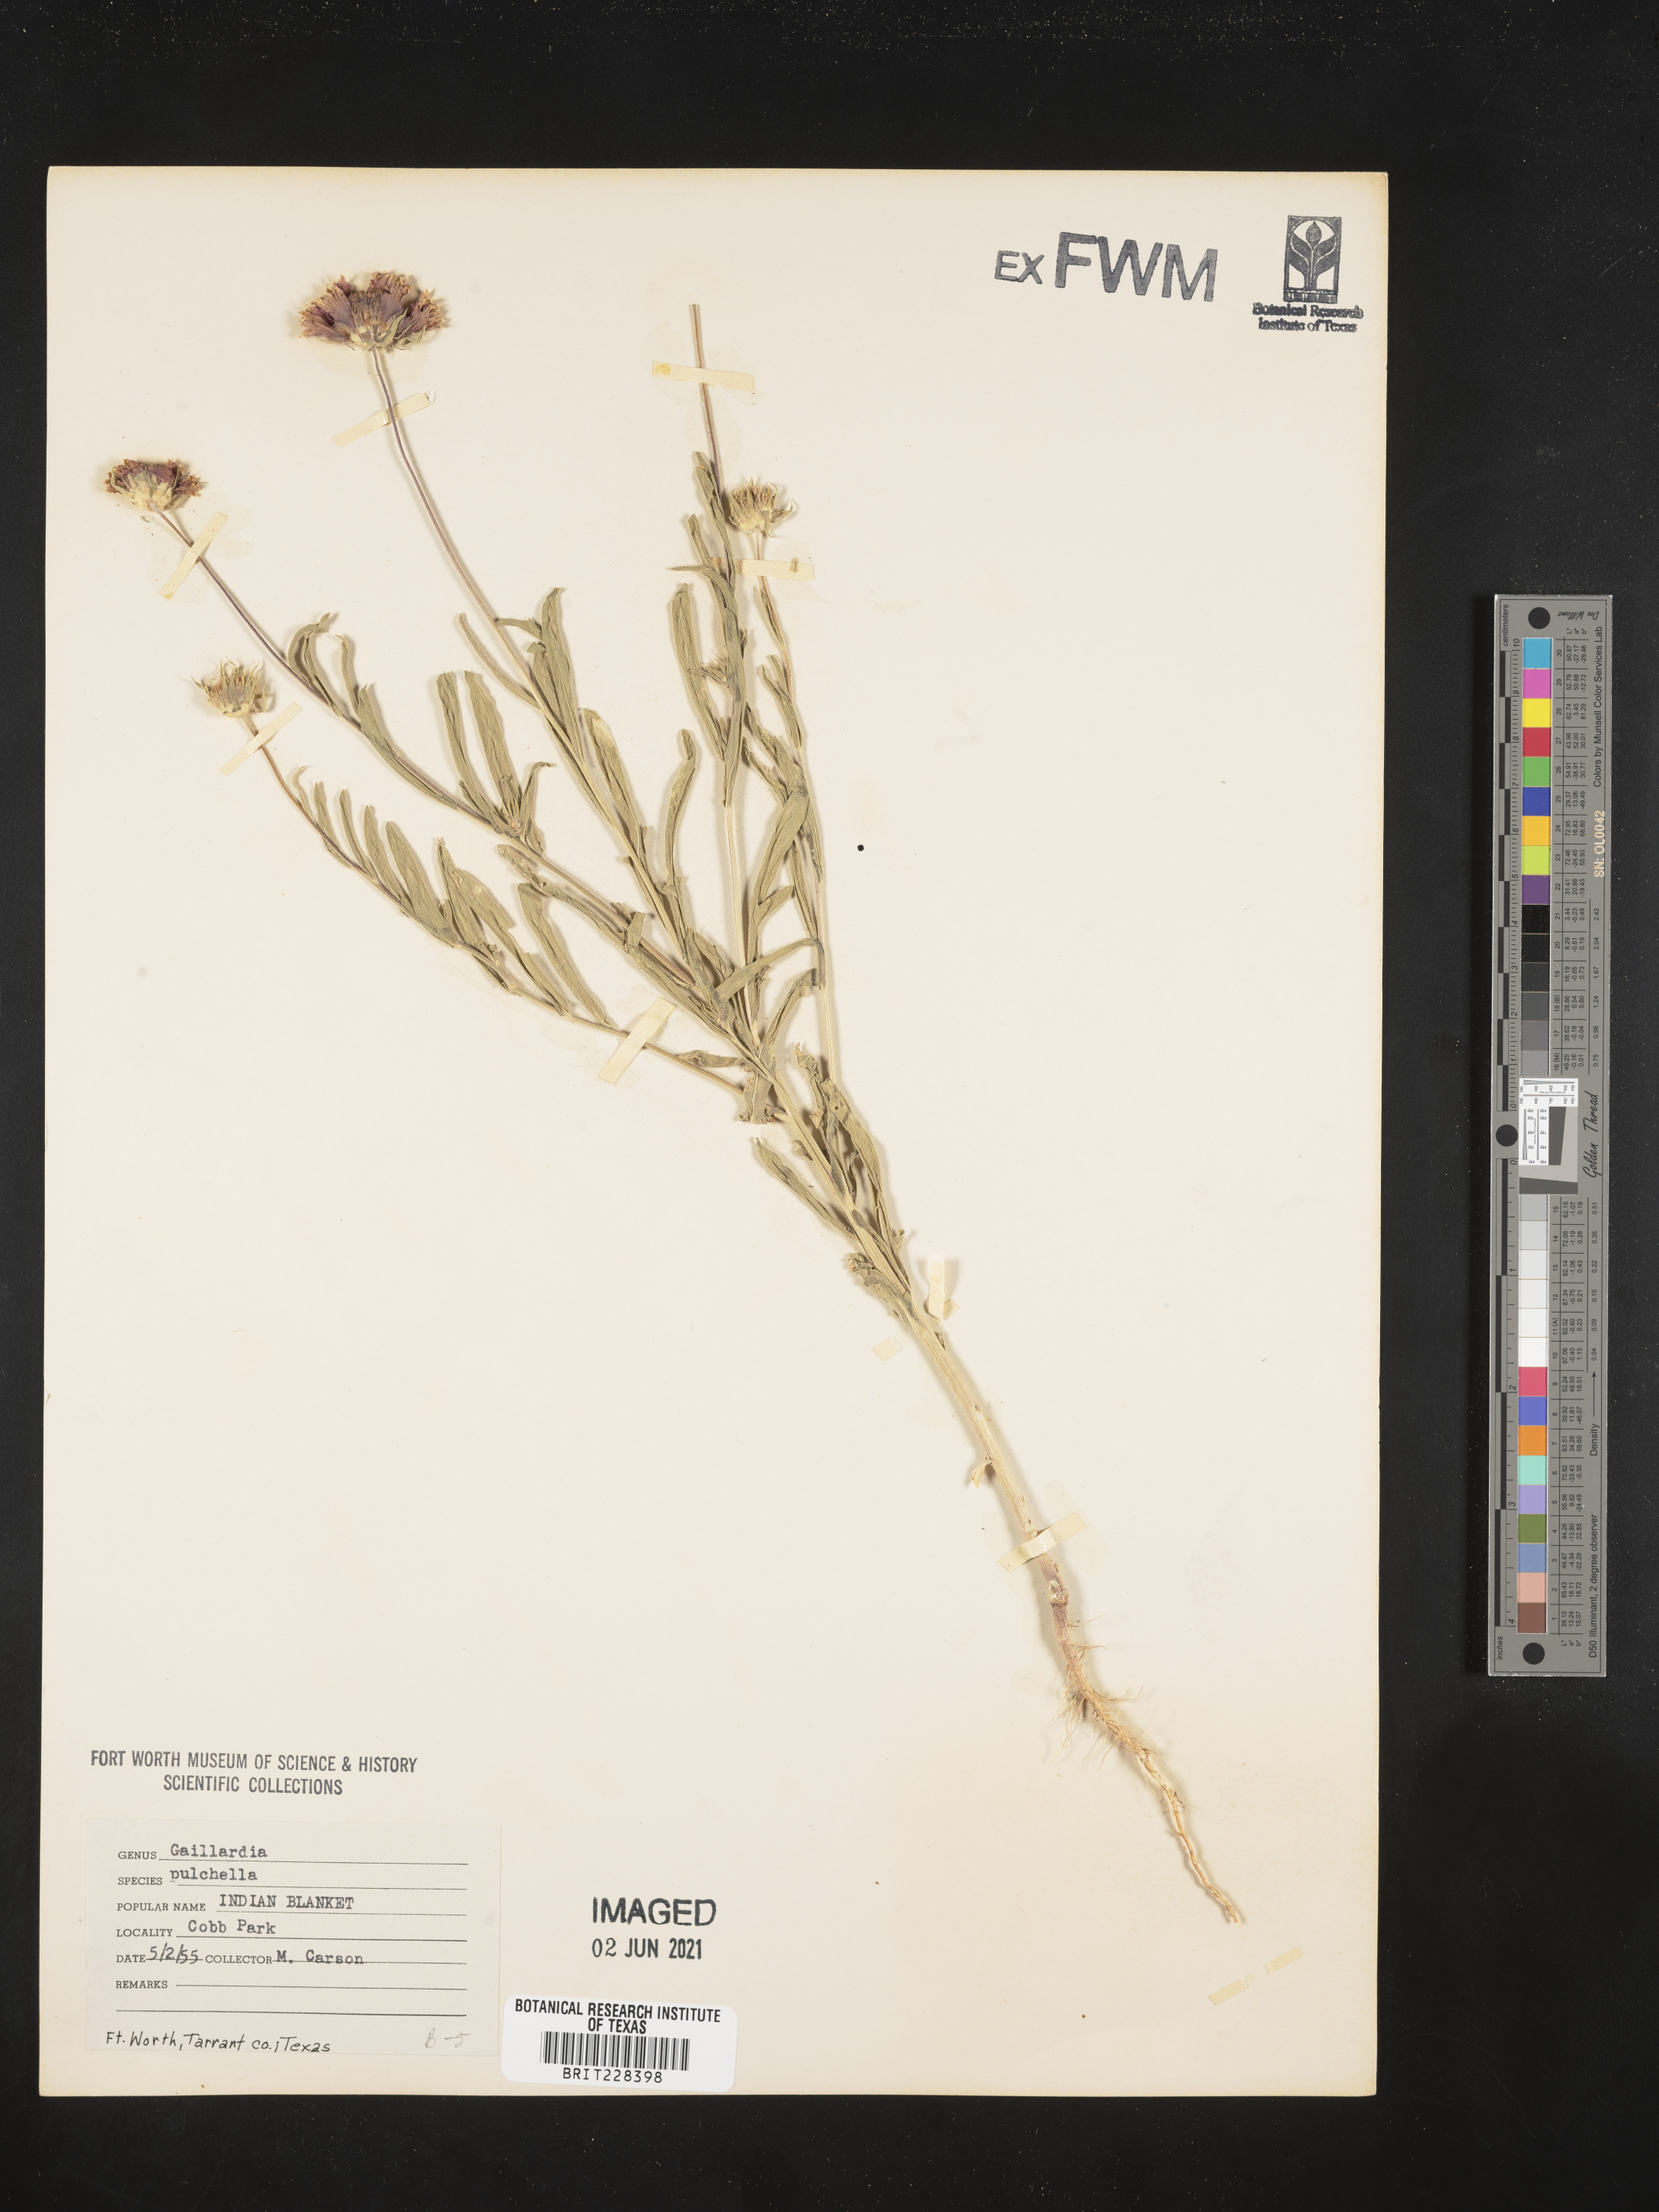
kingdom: Plantae
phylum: Tracheophyta
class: Magnoliopsida
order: Asterales
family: Asteraceae
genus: Gaillardia
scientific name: Gaillardia pulchella
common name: Firewheel
